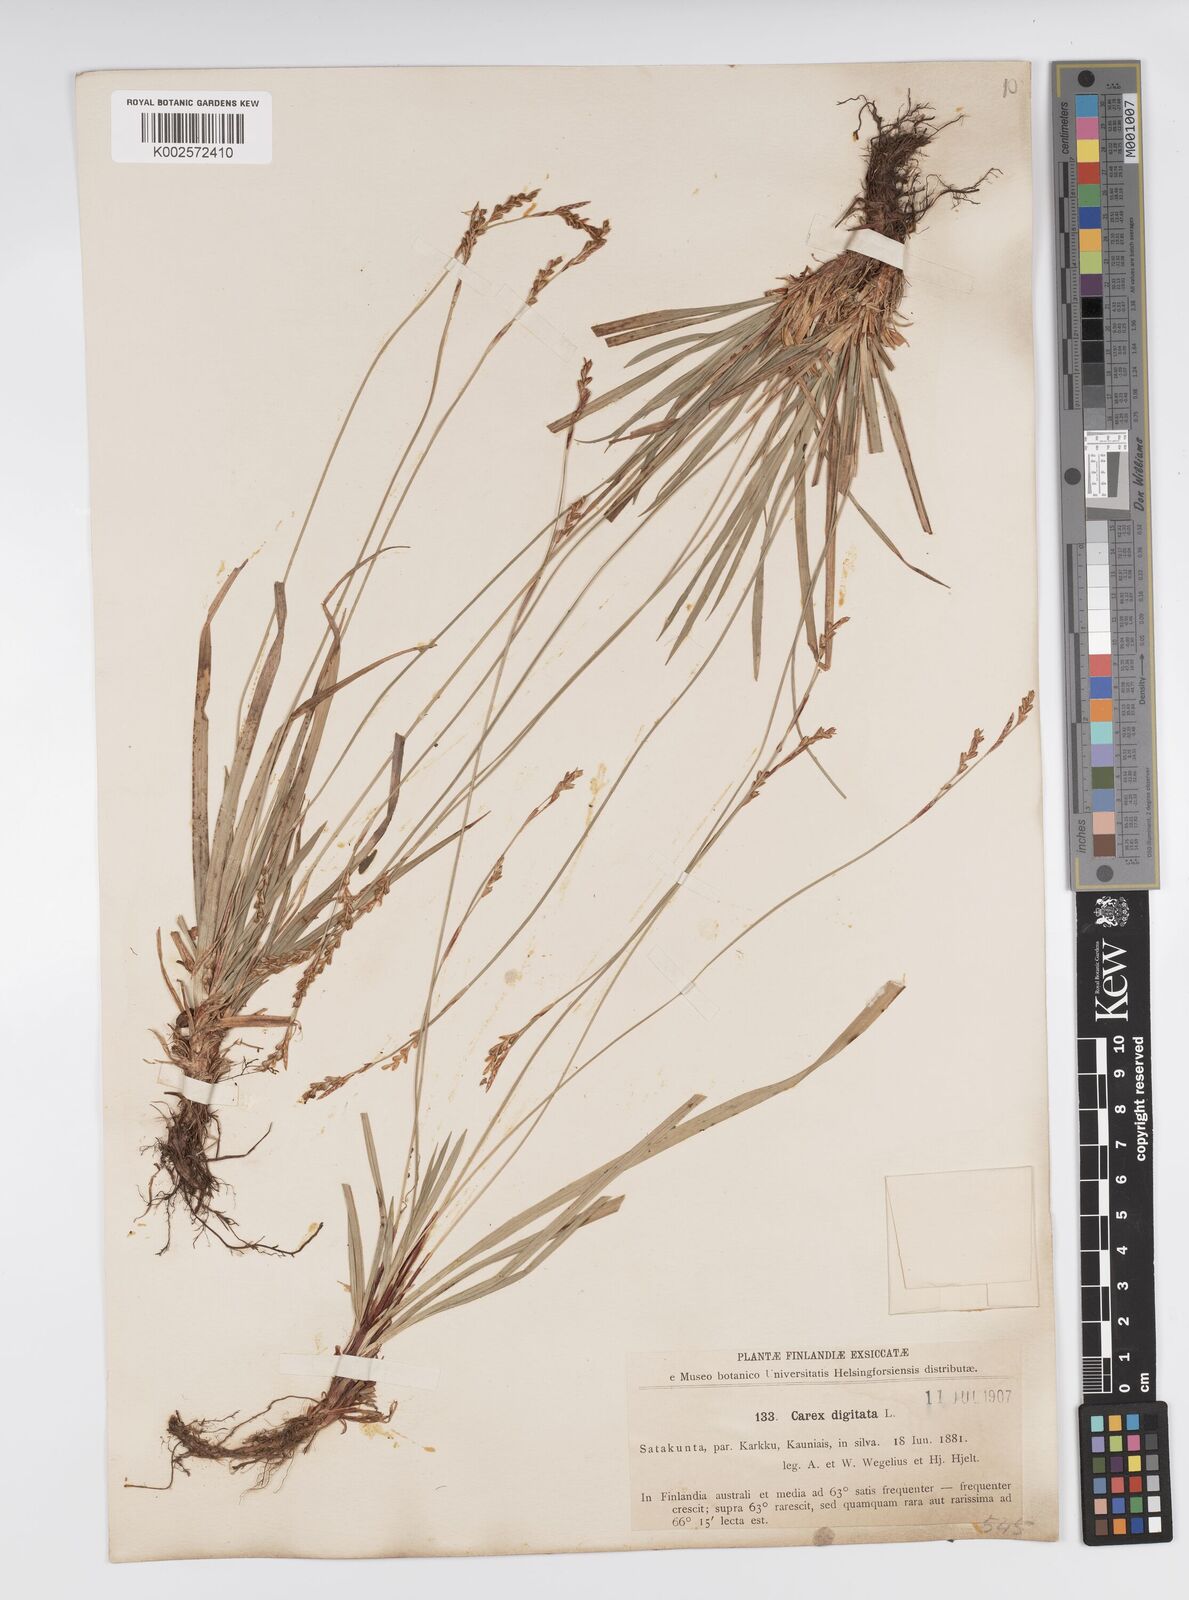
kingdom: Plantae
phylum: Tracheophyta
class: Liliopsida
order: Poales
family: Cyperaceae
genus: Carex
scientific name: Carex digitata
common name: Fingered sedge
